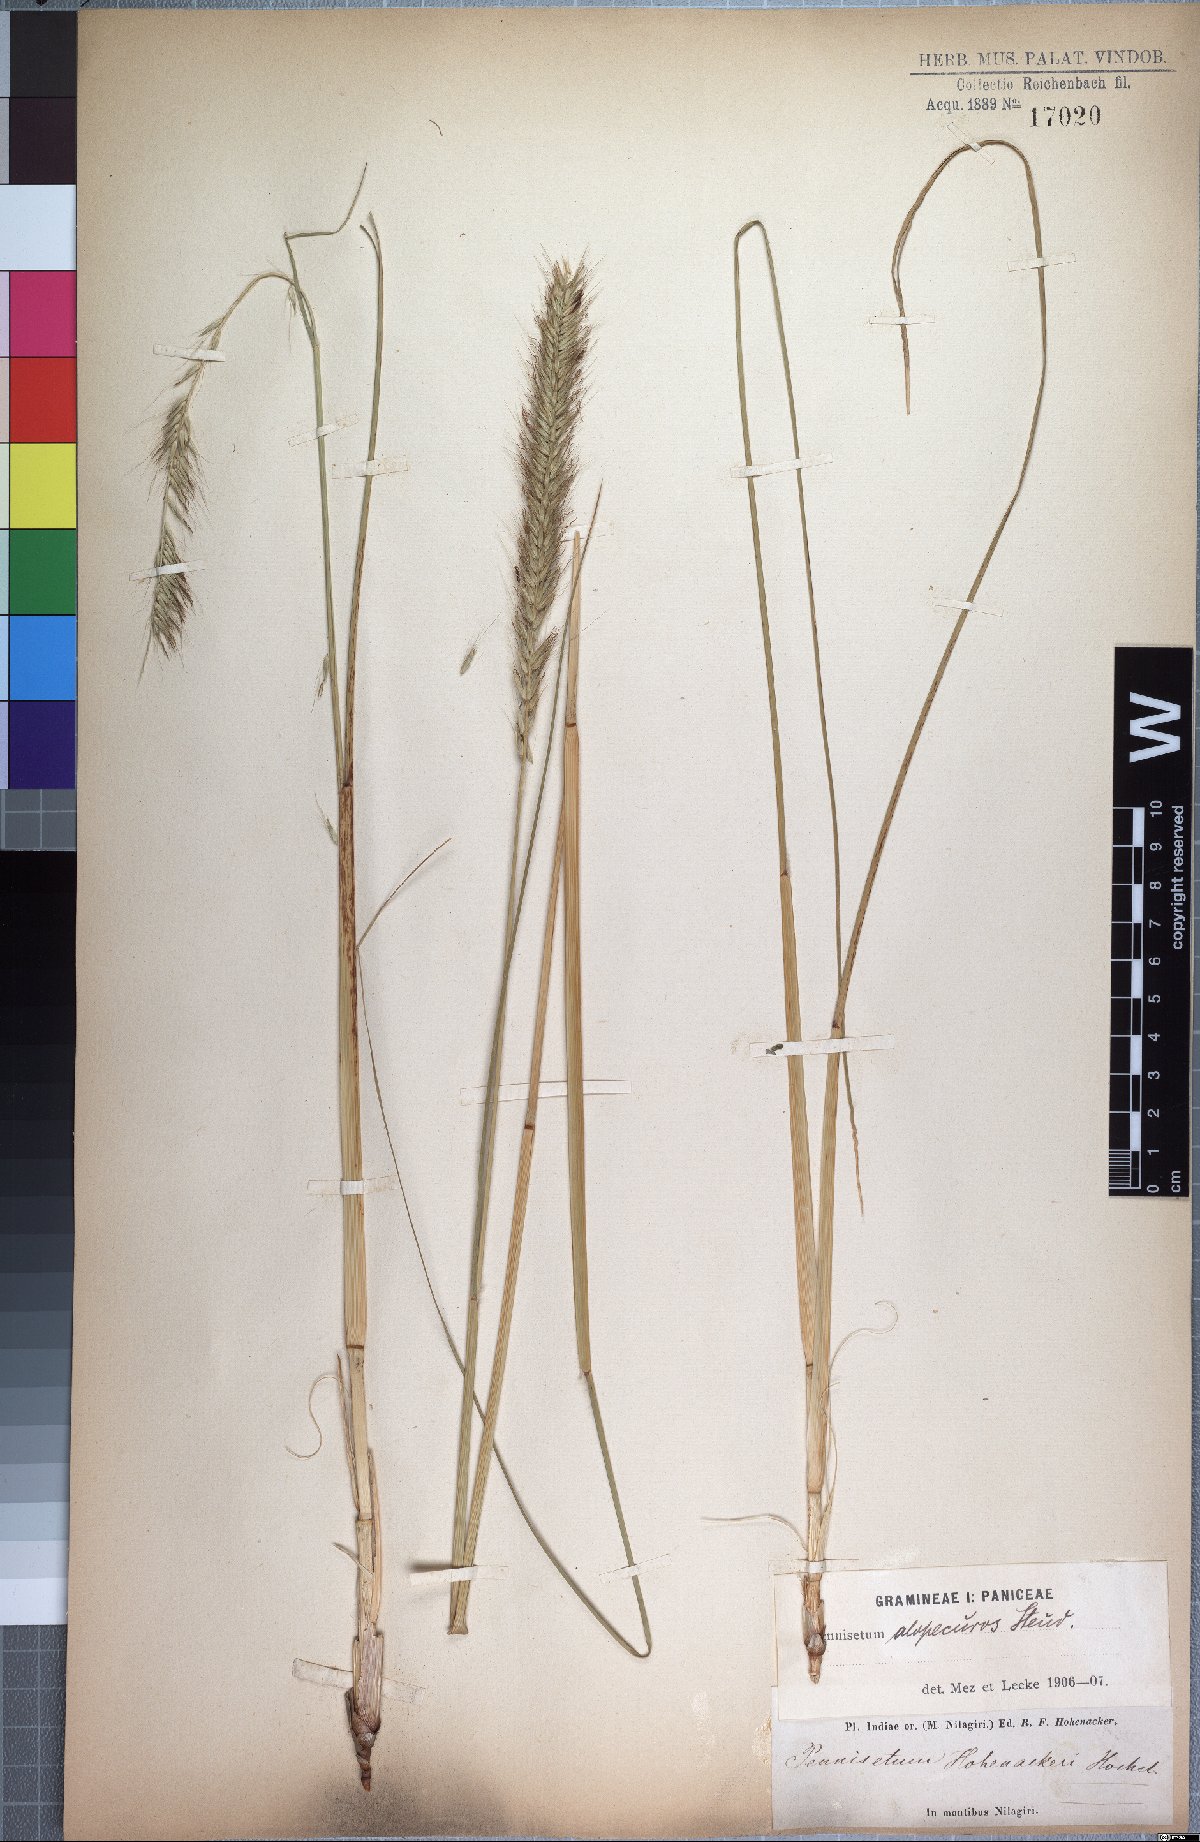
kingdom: Plantae
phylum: Tracheophyta
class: Liliopsida
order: Poales
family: Poaceae
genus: Cenchrus
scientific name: Cenchrus hohenackeri
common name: Moya grass
